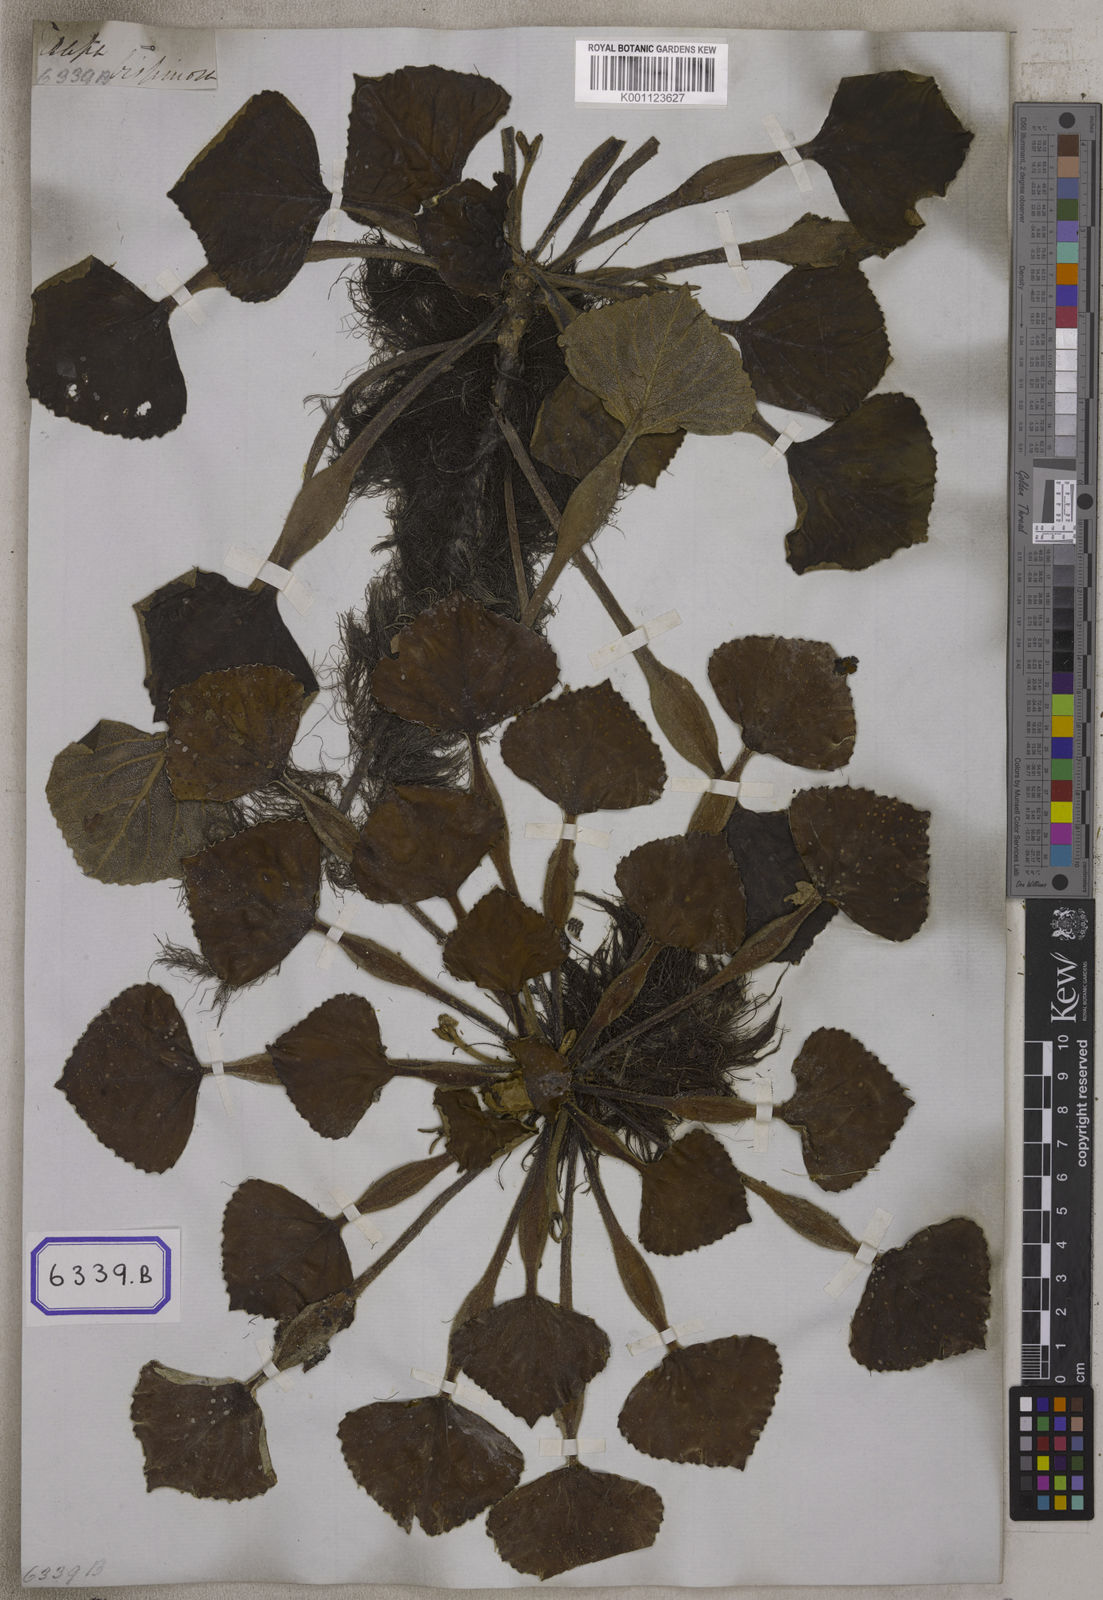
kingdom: Plantae
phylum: Tracheophyta
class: Magnoliopsida
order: Myrtales
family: Lythraceae
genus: Trapa
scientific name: Trapa natans
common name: Water chestnut
